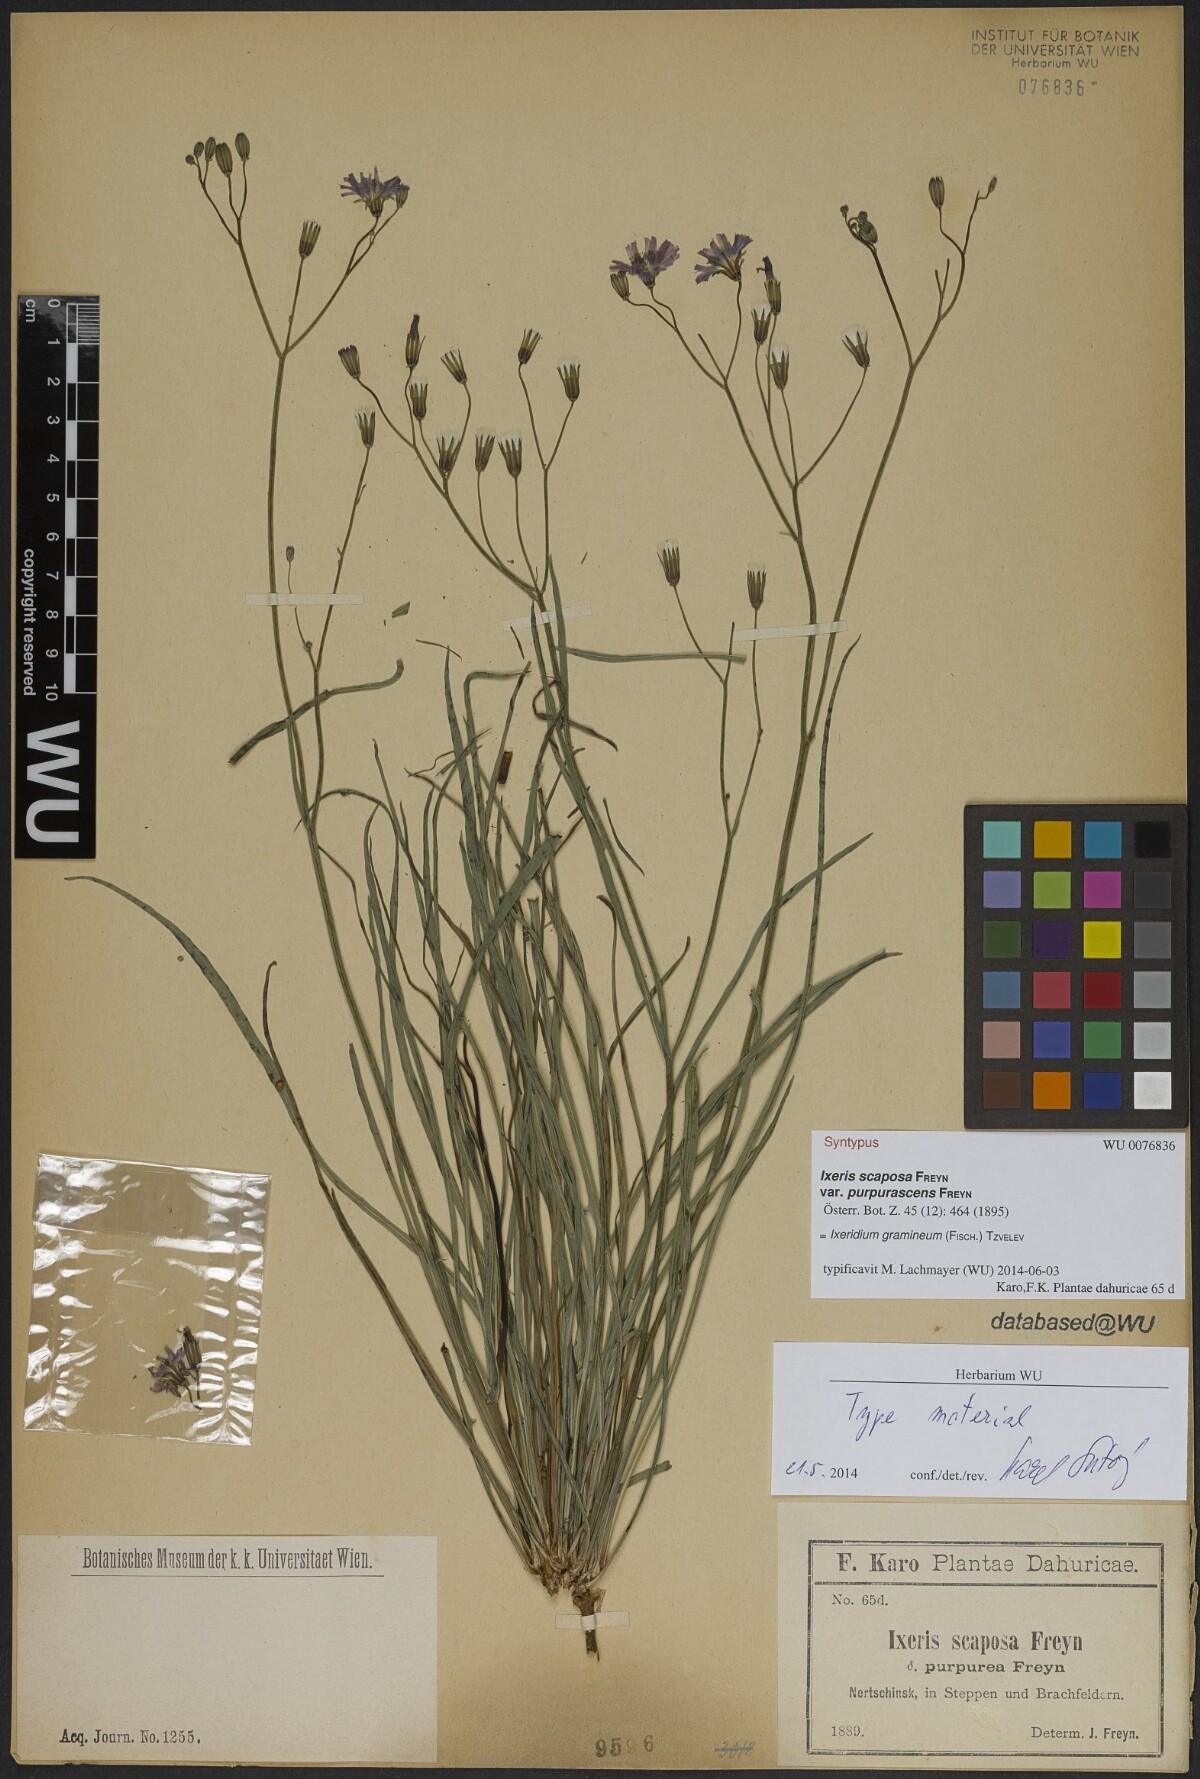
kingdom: Plantae
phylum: Tracheophyta
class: Magnoliopsida
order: Asterales
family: Asteraceae
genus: Ixeris
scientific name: Ixeris chinensis
